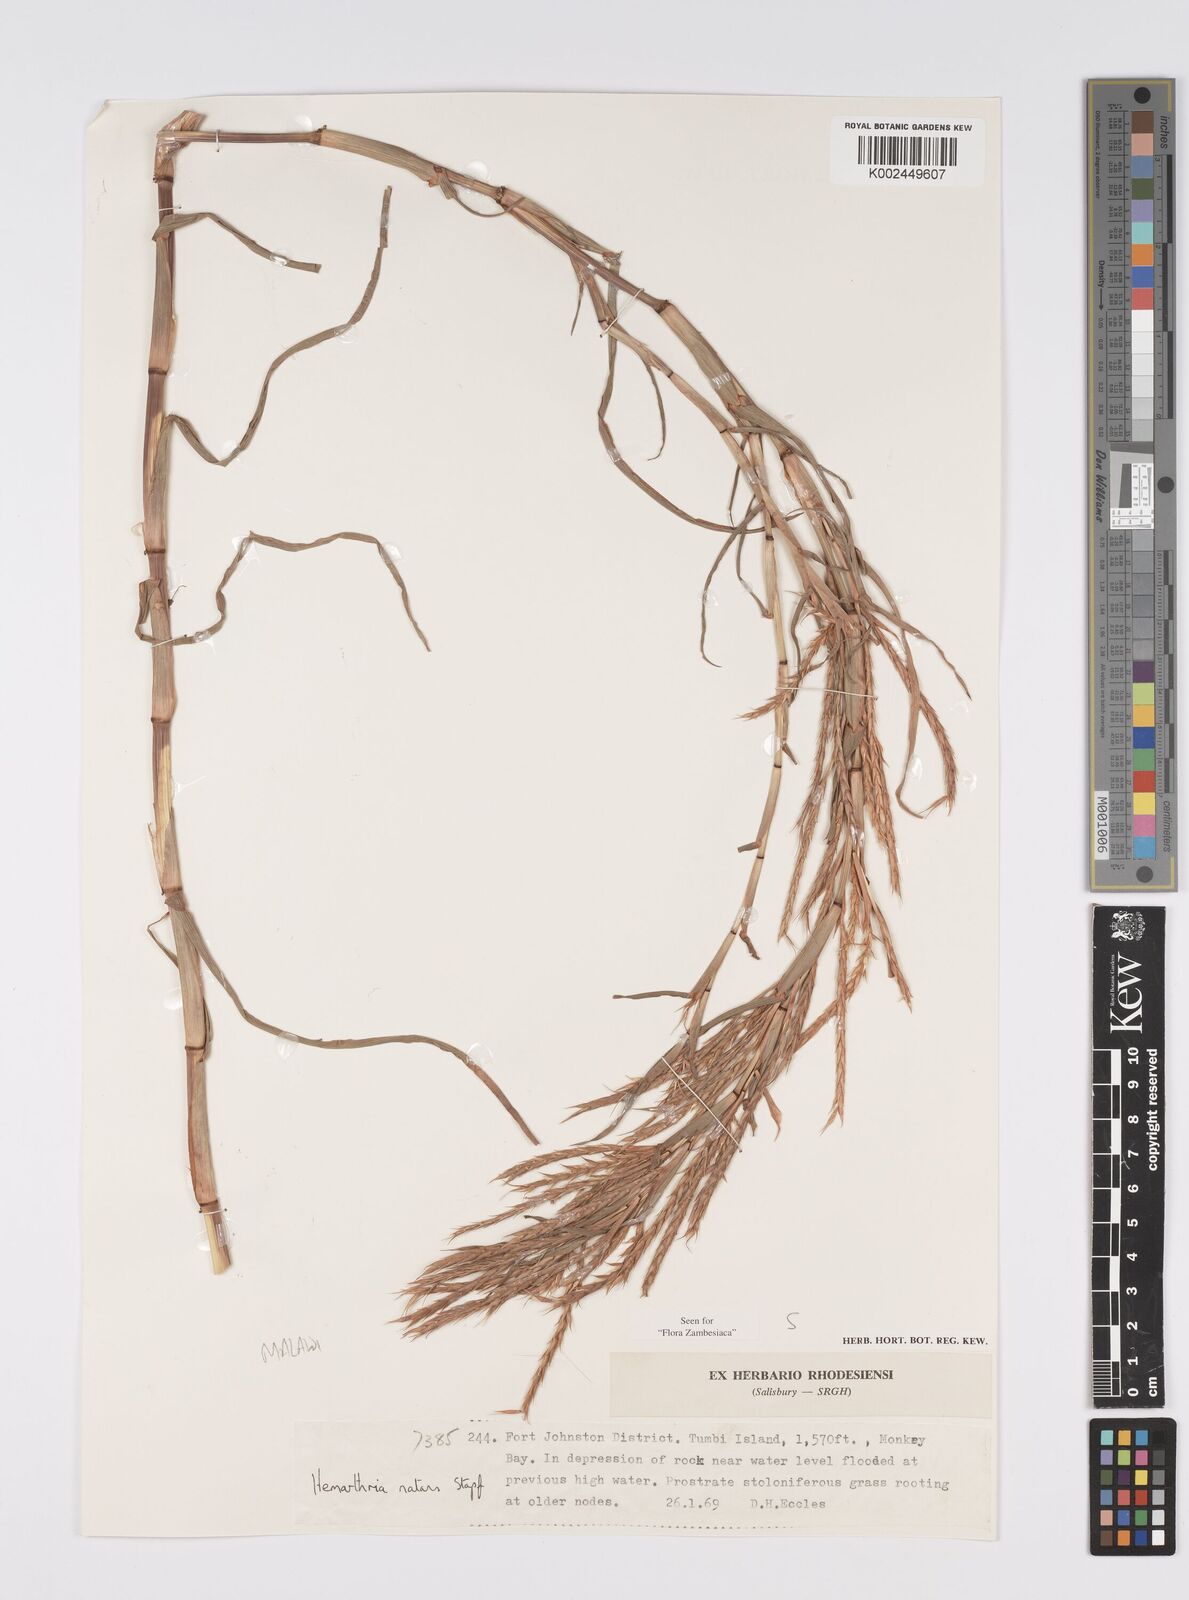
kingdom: Plantae
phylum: Tracheophyta
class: Liliopsida
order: Poales
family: Poaceae
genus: Hemarthria
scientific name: Hemarthria natans
